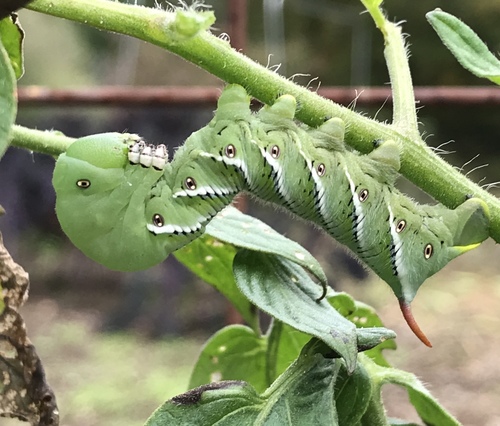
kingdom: Animalia
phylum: Arthropoda
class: Insecta
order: Lepidoptera
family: Sphingidae
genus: Manduca
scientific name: Manduca sexta
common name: Carolina sphinx
